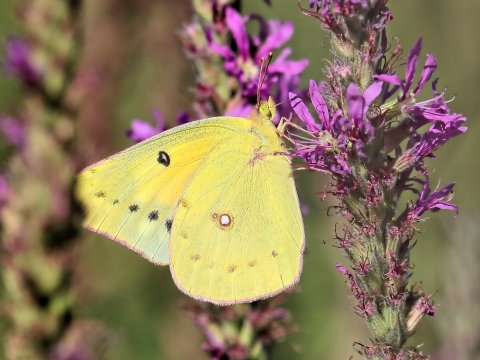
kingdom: Animalia
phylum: Arthropoda
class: Insecta
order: Lepidoptera
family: Pieridae
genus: Colias
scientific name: Colias eurytheme
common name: Orange Sulphur
